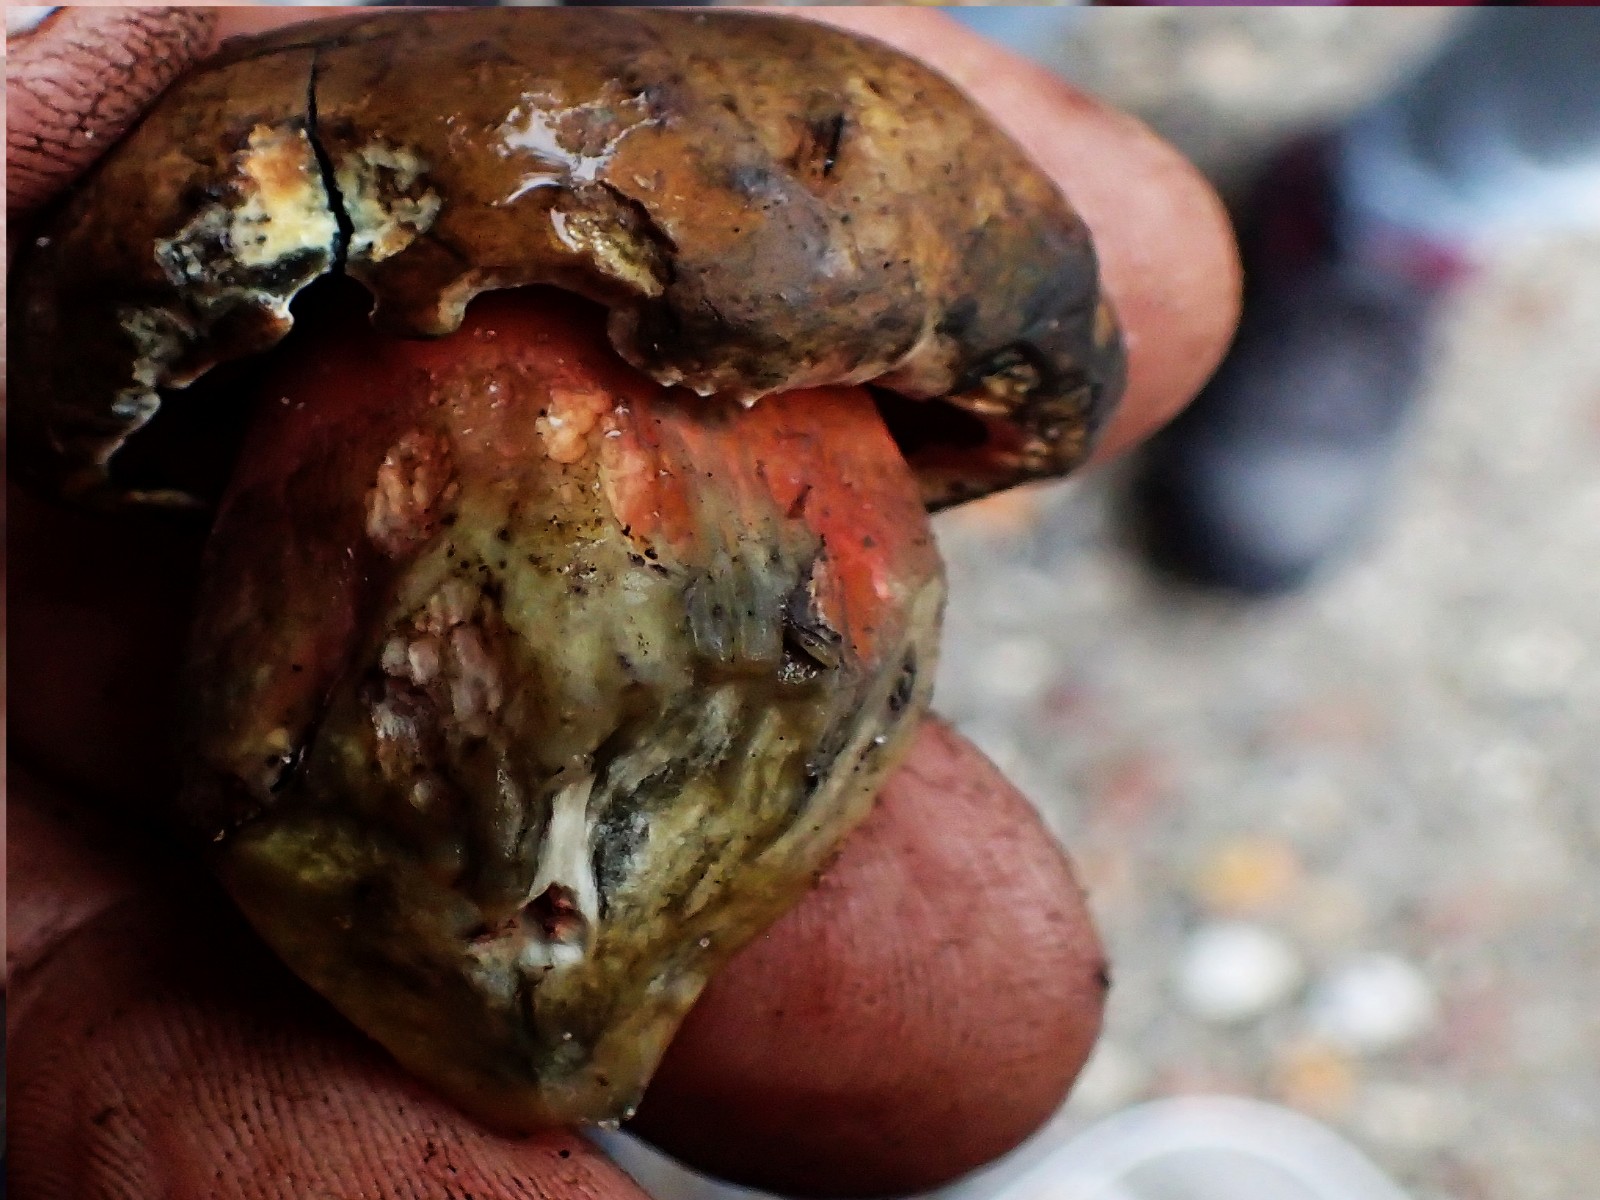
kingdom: Fungi
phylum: Basidiomycota
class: Agaricomycetes
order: Boletales
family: Boletaceae
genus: Caloboletus
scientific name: Caloboletus calopus
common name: skønfodet rørhat
